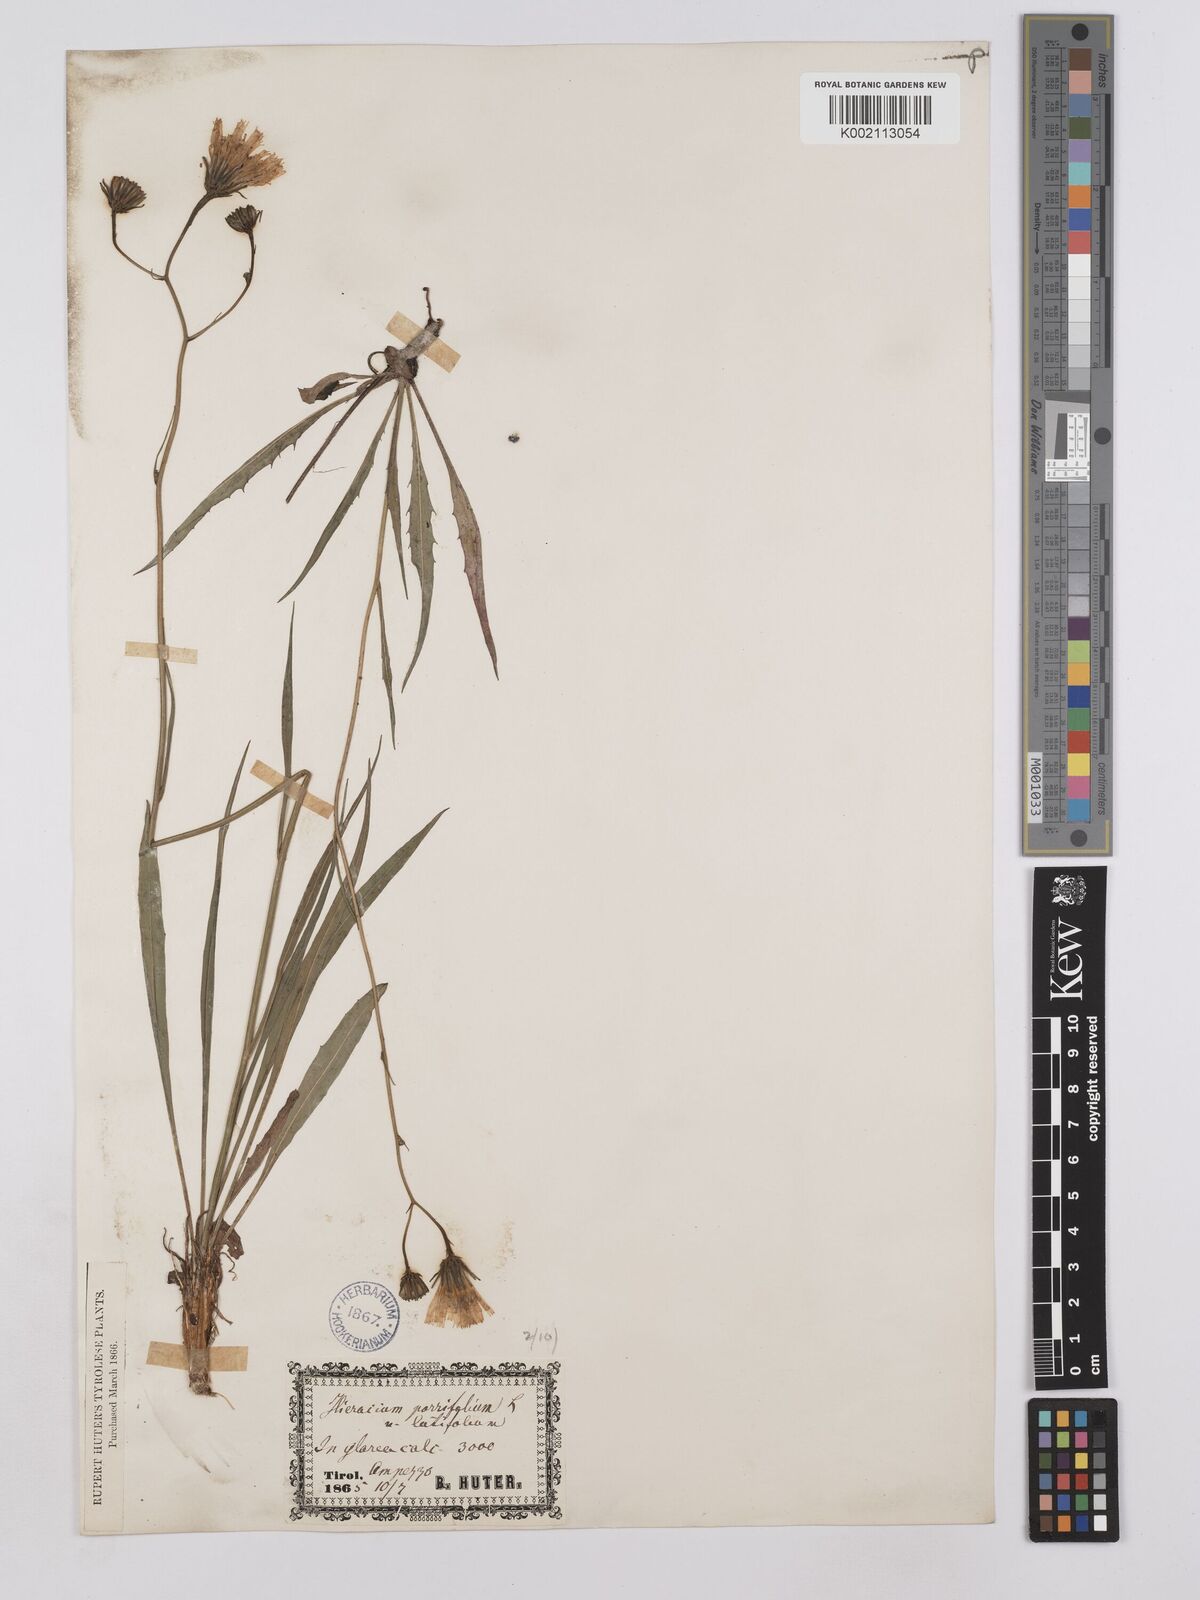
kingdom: Plantae
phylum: Tracheophyta
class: Magnoliopsida
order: Asterales
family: Asteraceae
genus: Hieracium
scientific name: Hieracium bupleuroides
